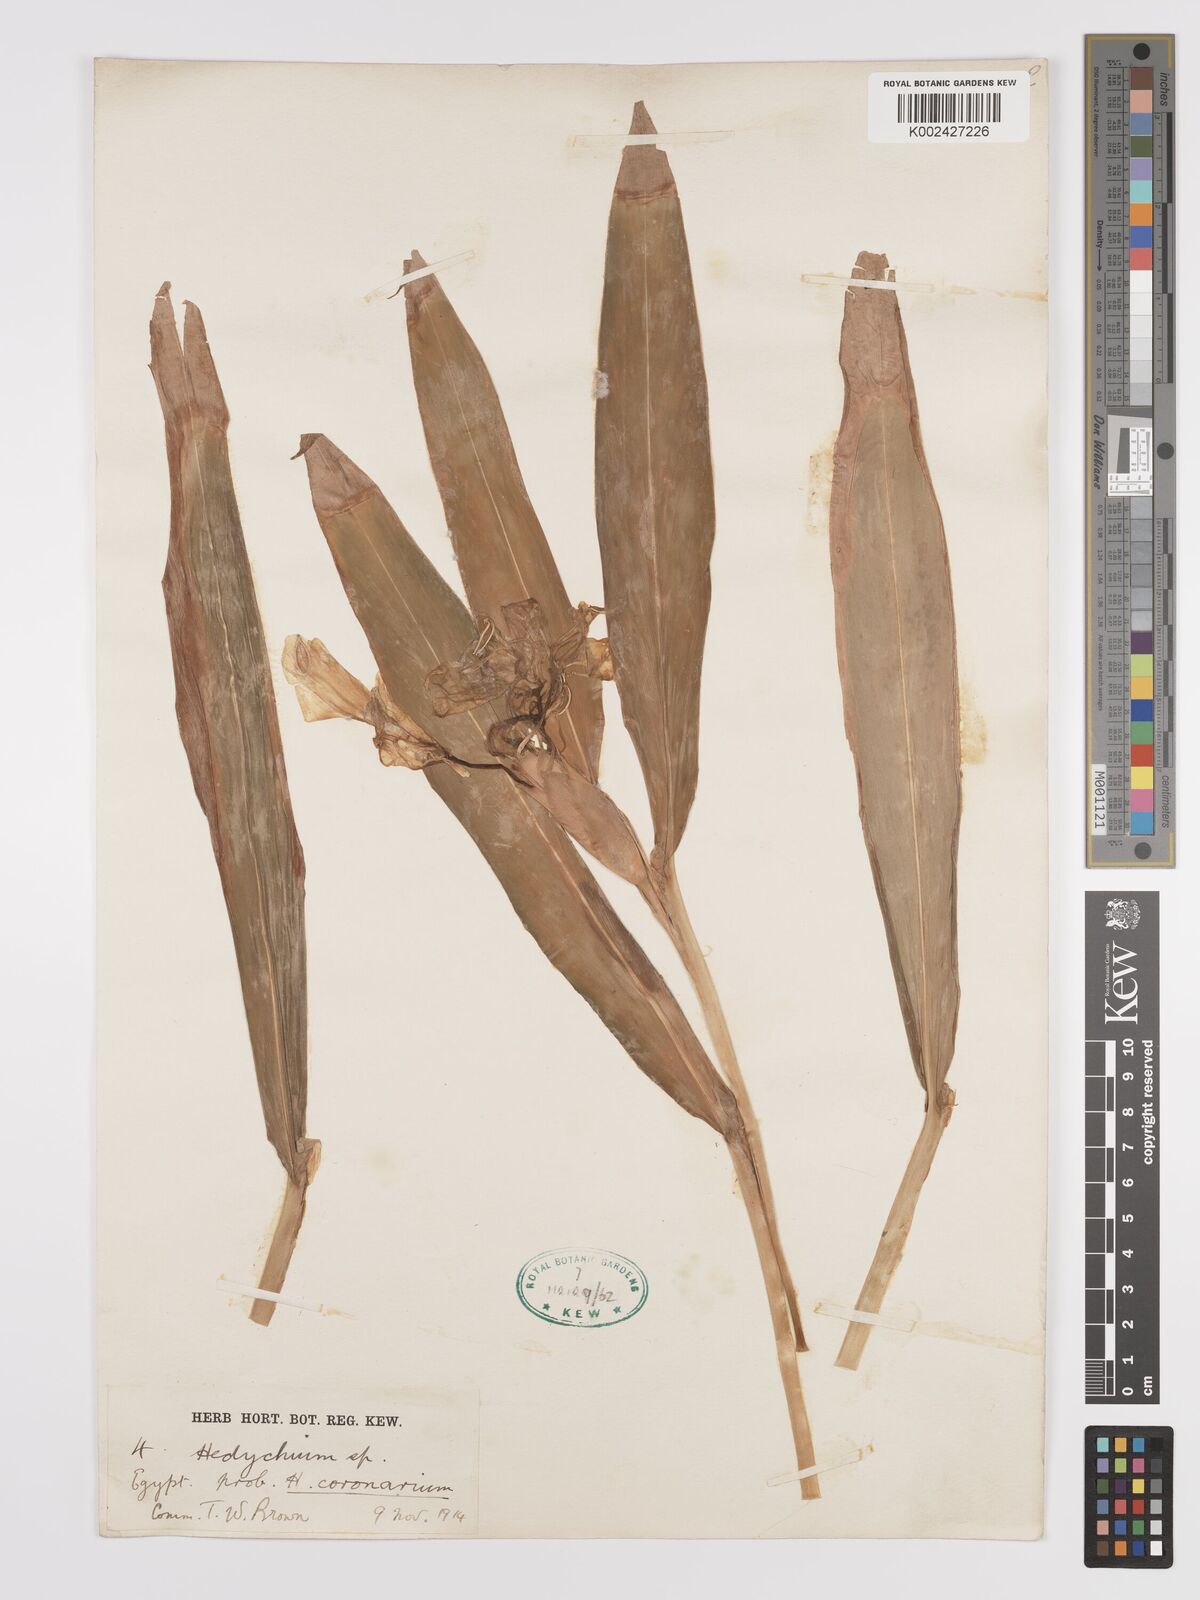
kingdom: Plantae
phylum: Tracheophyta
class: Liliopsida
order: Zingiberales
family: Zingiberaceae
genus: Hedychium
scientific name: Hedychium coronarium
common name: White garland-lily
